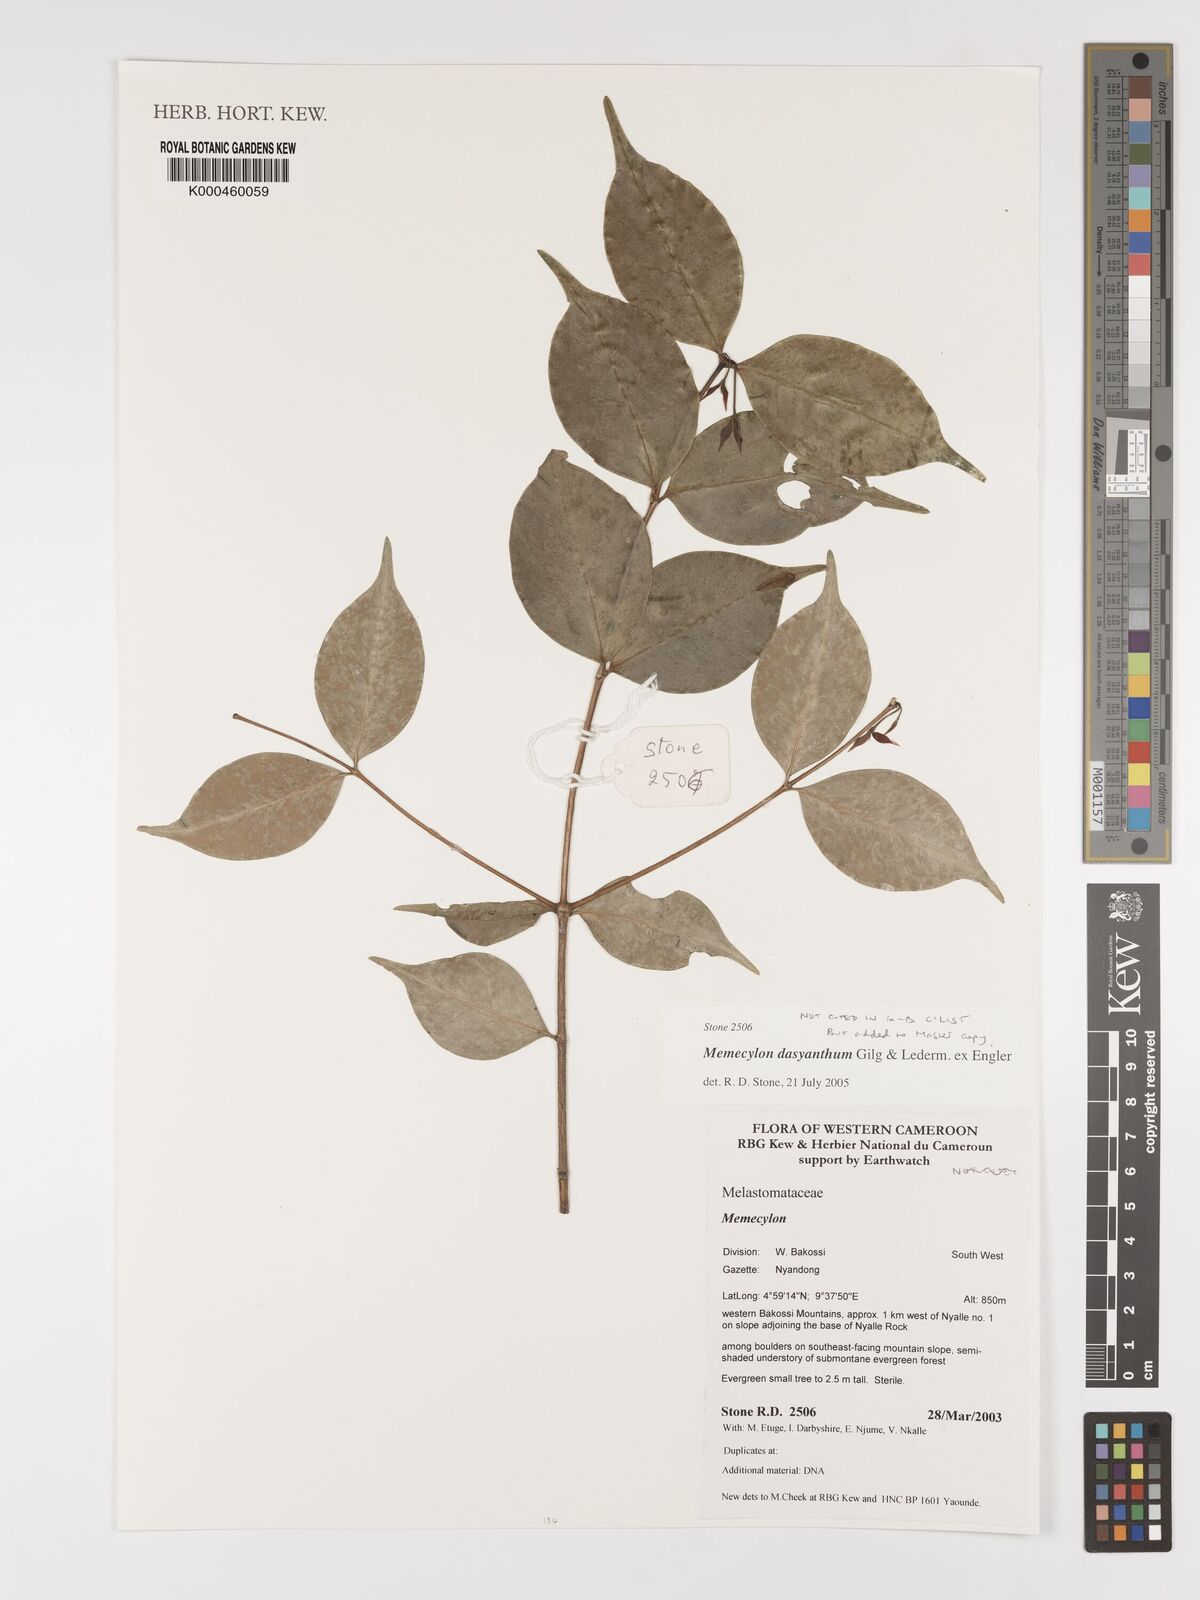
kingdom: Plantae
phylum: Tracheophyta
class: Magnoliopsida
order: Myrtales
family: Melastomataceae
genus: Memecylon
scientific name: Memecylon dasyanthum
